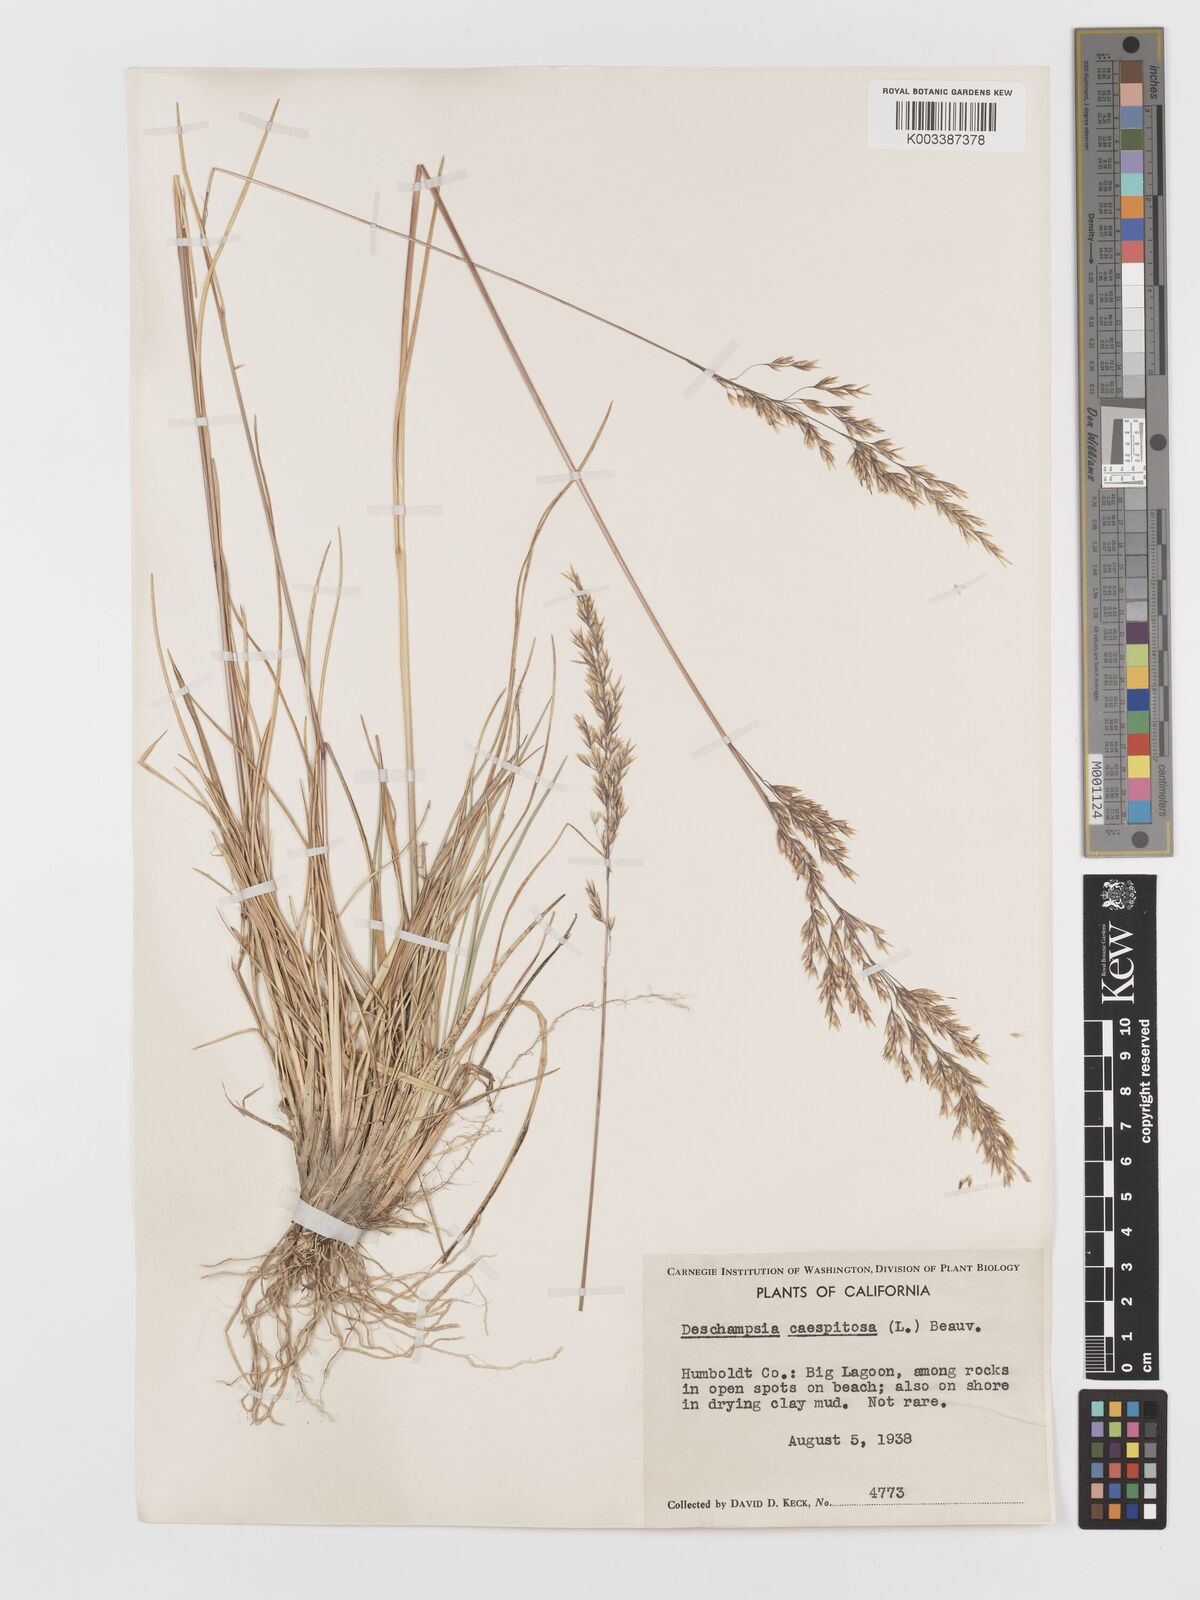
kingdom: Plantae
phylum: Tracheophyta
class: Liliopsida
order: Poales
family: Poaceae
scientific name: Poaceae
